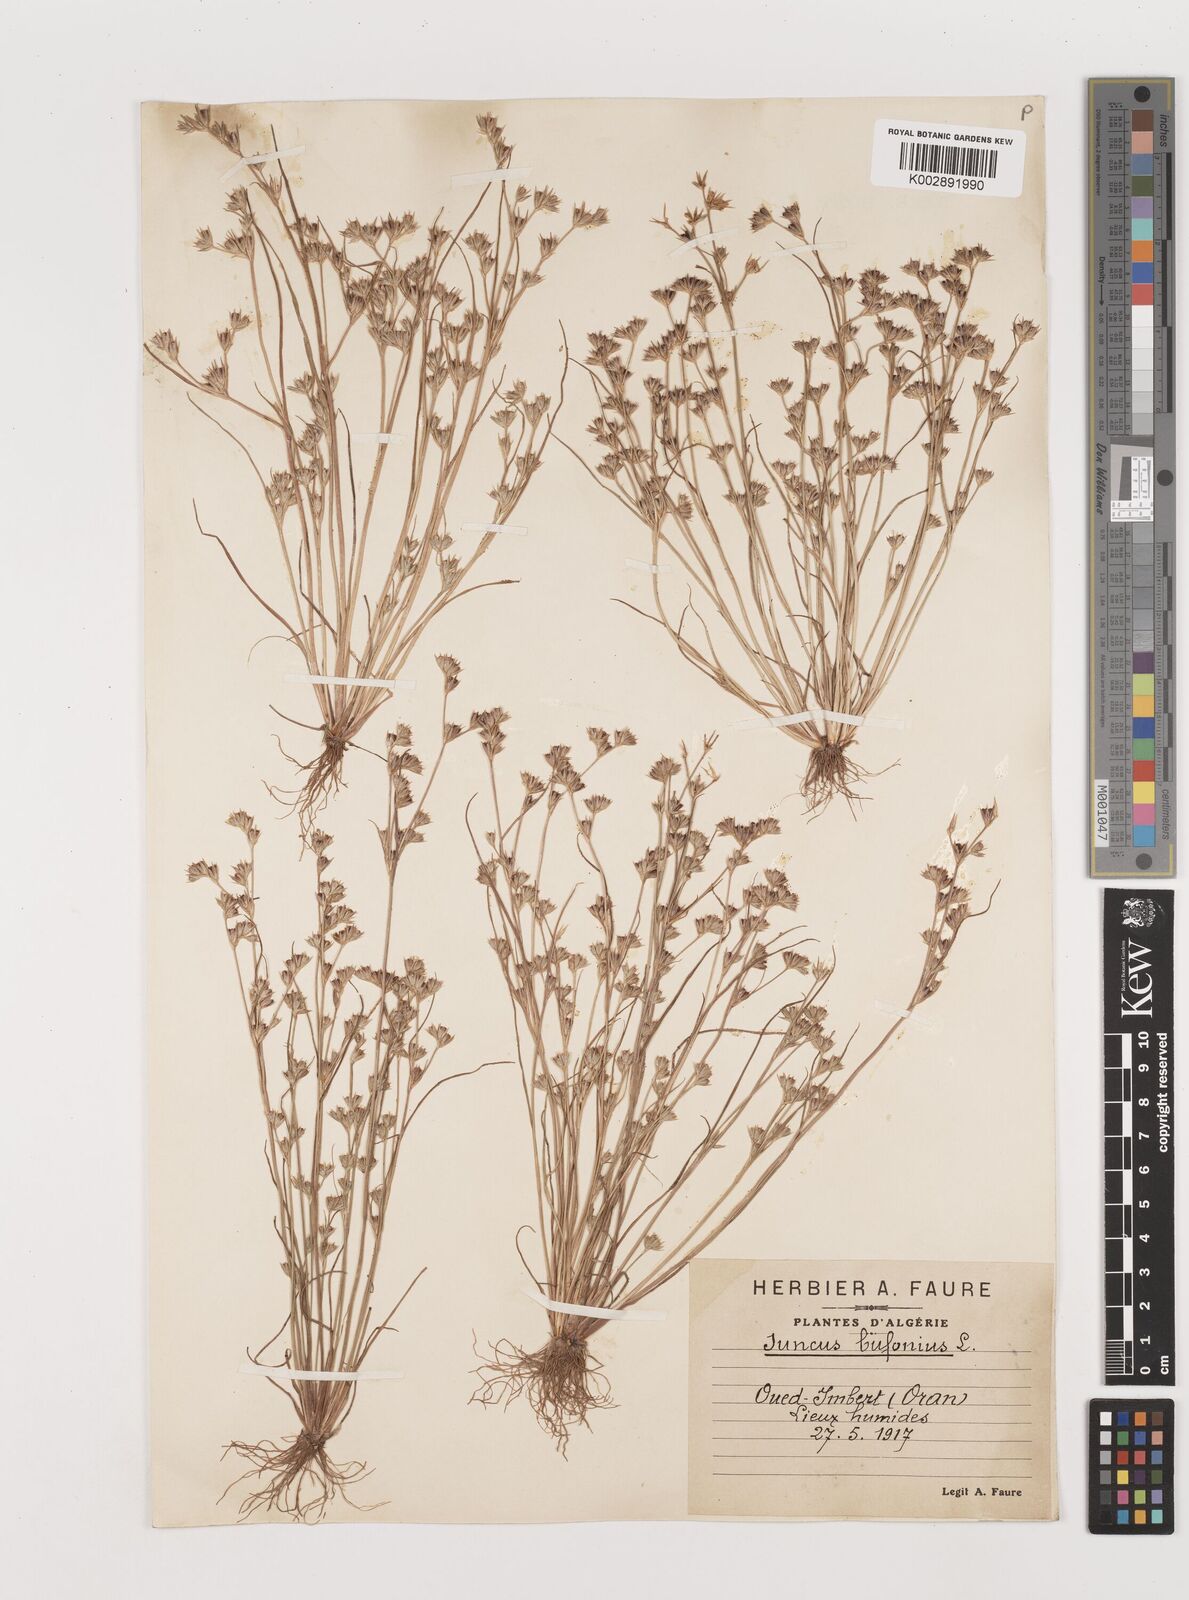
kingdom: Plantae
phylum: Tracheophyta
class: Liliopsida
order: Poales
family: Juncaceae
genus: Juncus
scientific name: Juncus bufonius
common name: Toad rush
